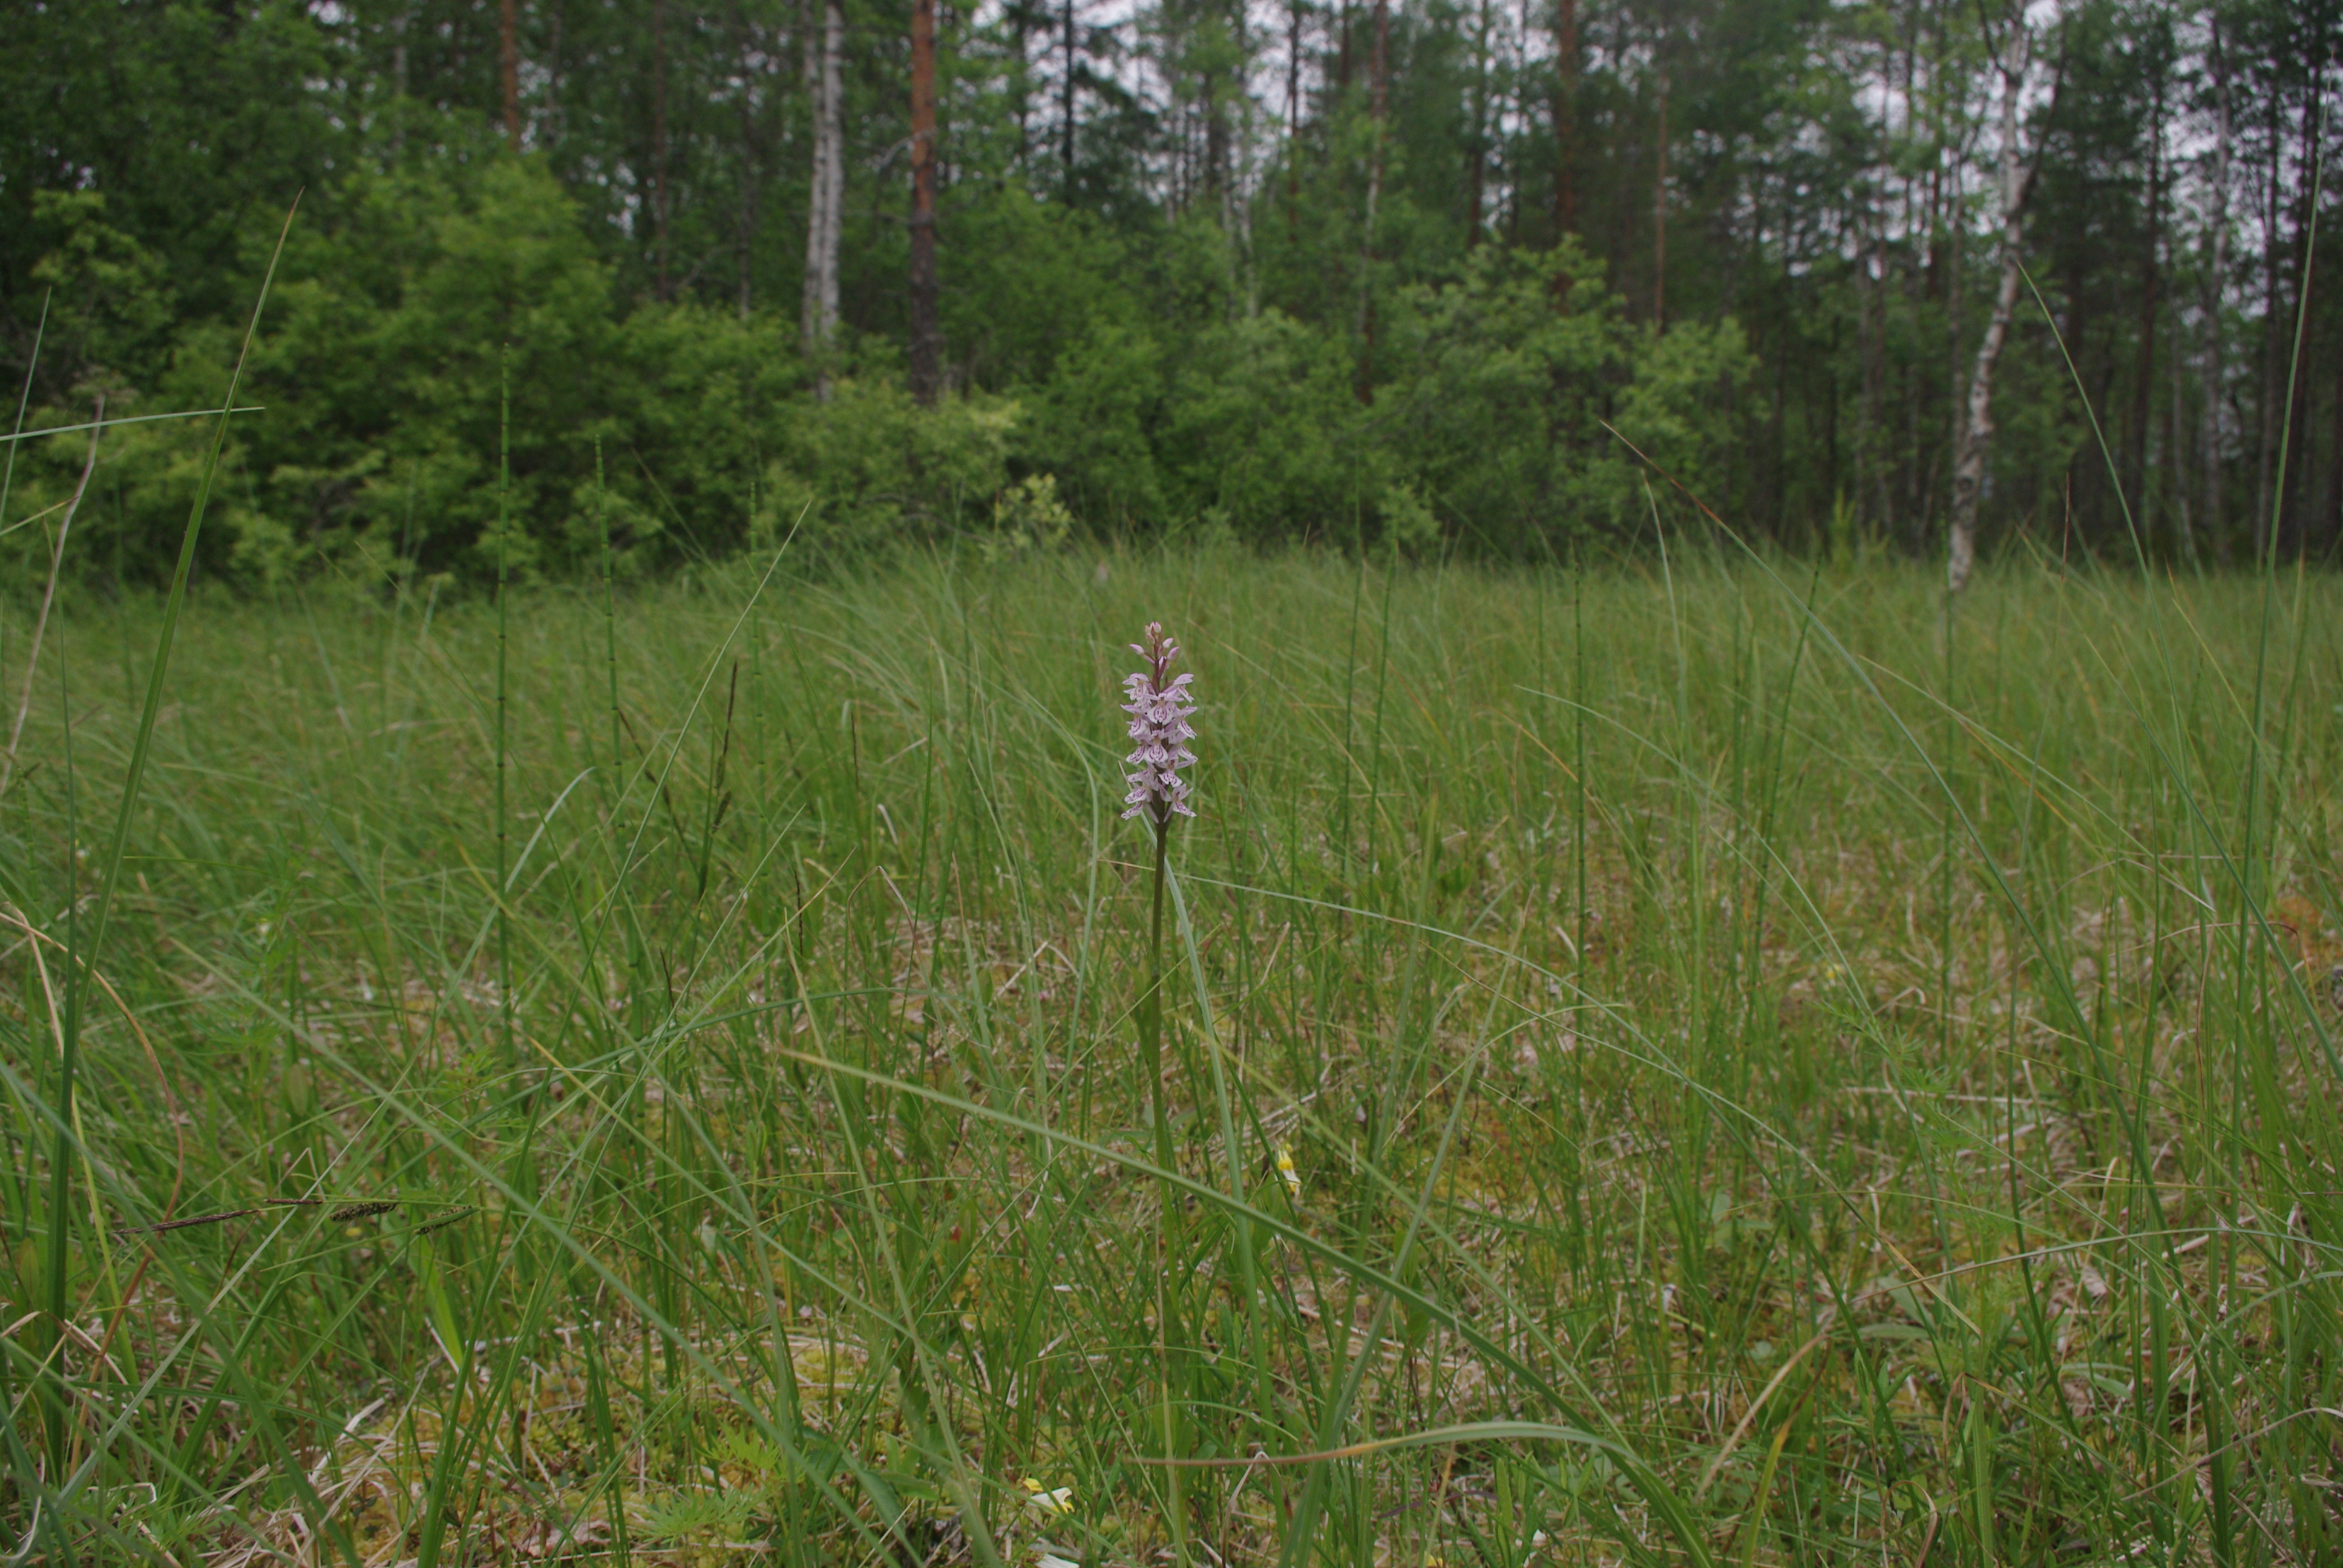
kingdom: Plantae
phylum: Tracheophyta
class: Liliopsida
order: Asparagales
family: Orchidaceae
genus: Dactylorhiza
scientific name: Dactylorhiza maculata
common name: Heath spotted-orchid
